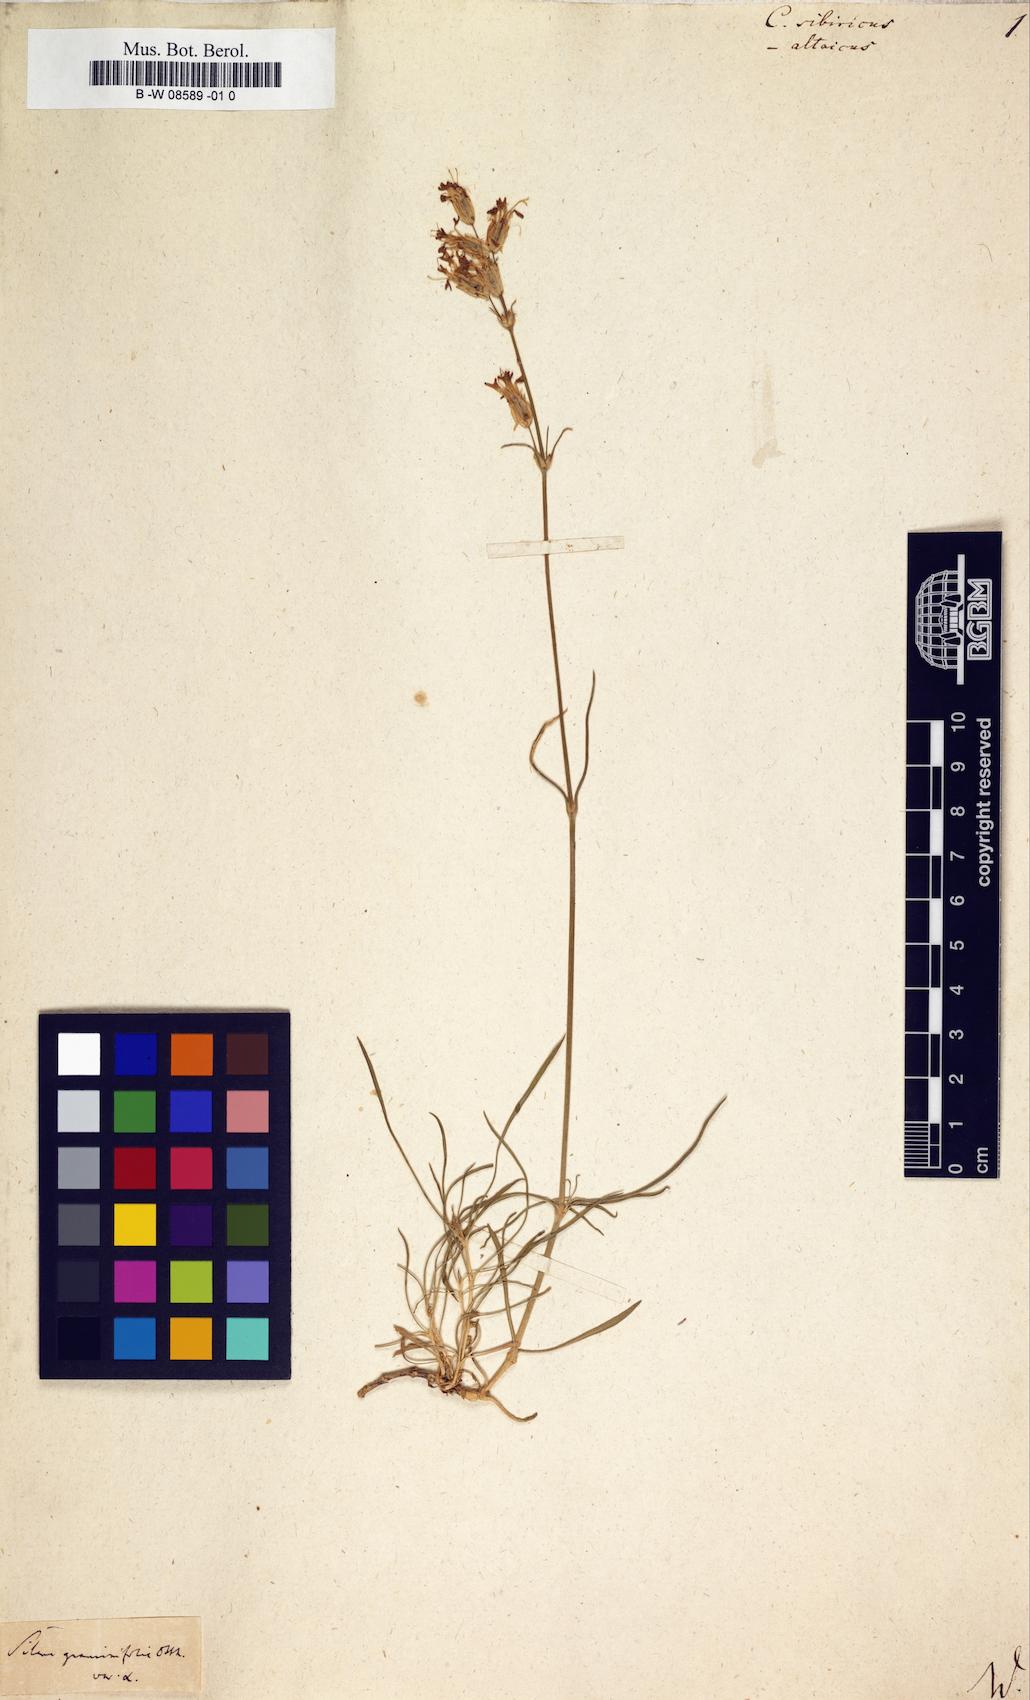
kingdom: Plantae
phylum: Tracheophyta
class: Magnoliopsida
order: Caryophyllales
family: Caryophyllaceae
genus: Silene
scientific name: Silene
